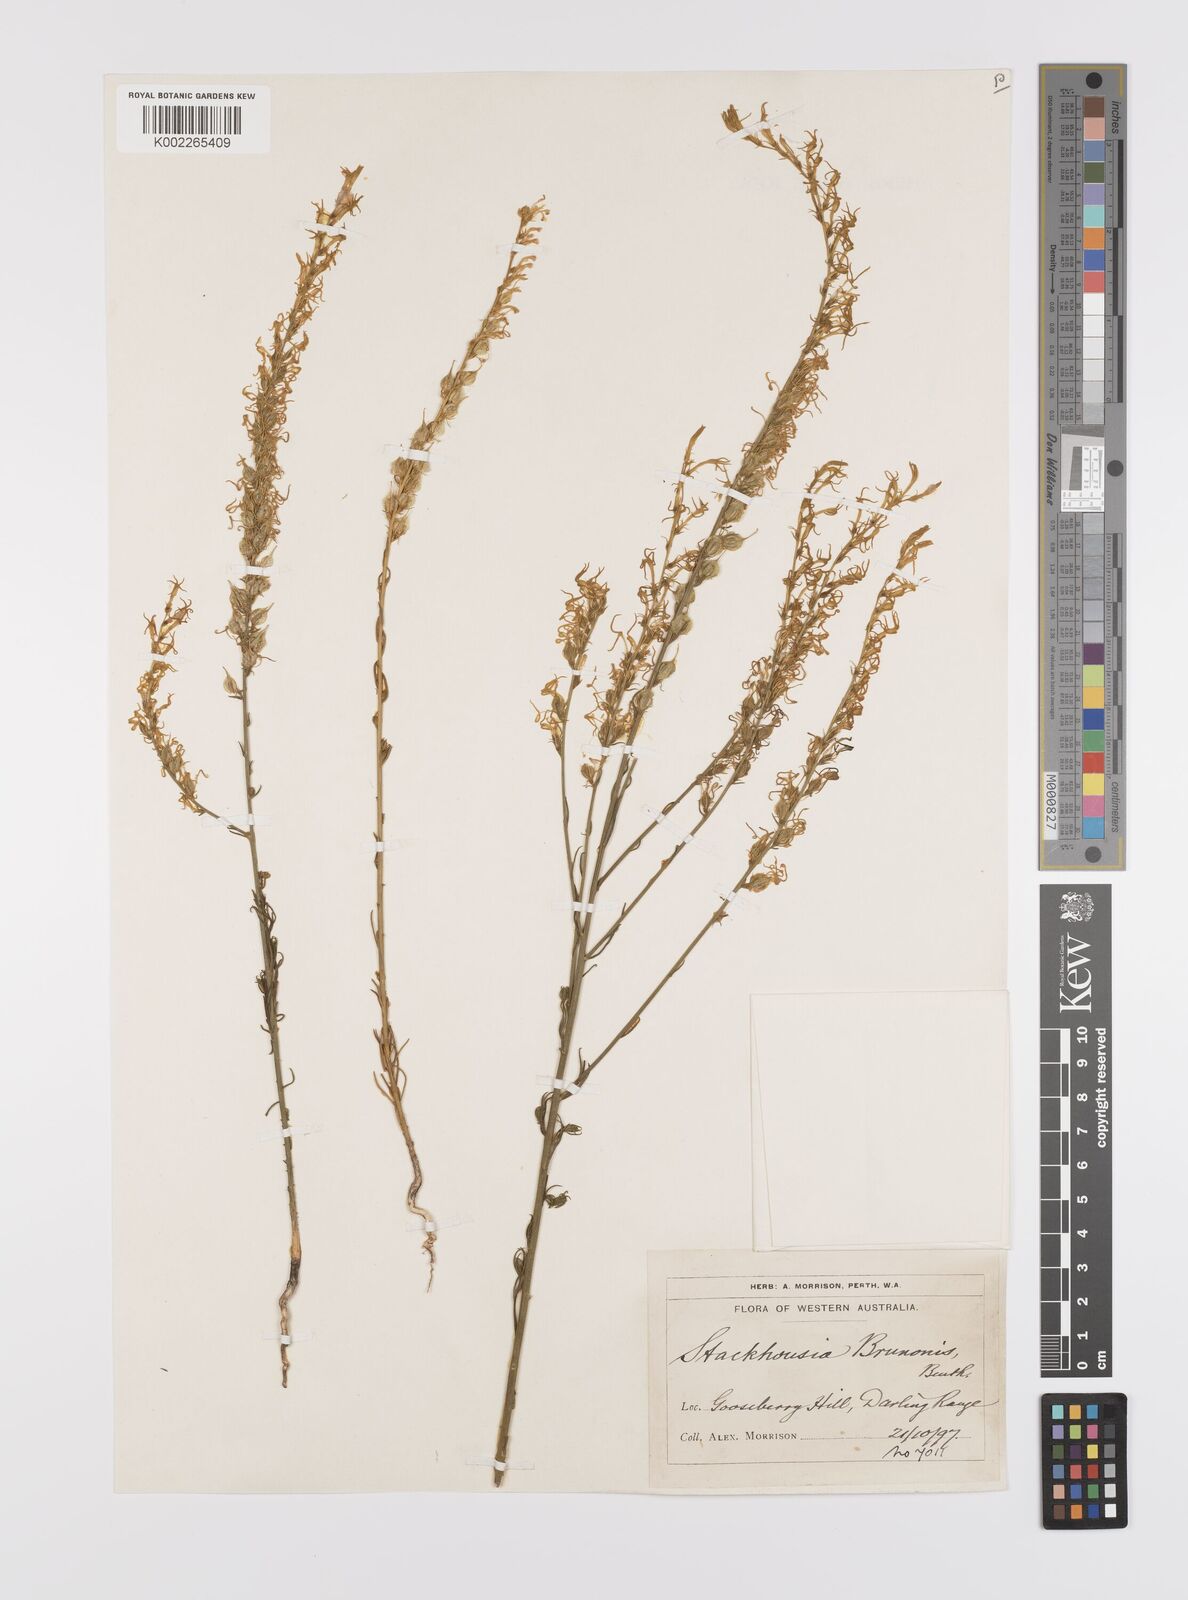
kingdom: Plantae
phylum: Tracheophyta
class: Magnoliopsida
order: Celastrales
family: Celastraceae
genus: Tripterococcus
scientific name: Tripterococcus brunonis
